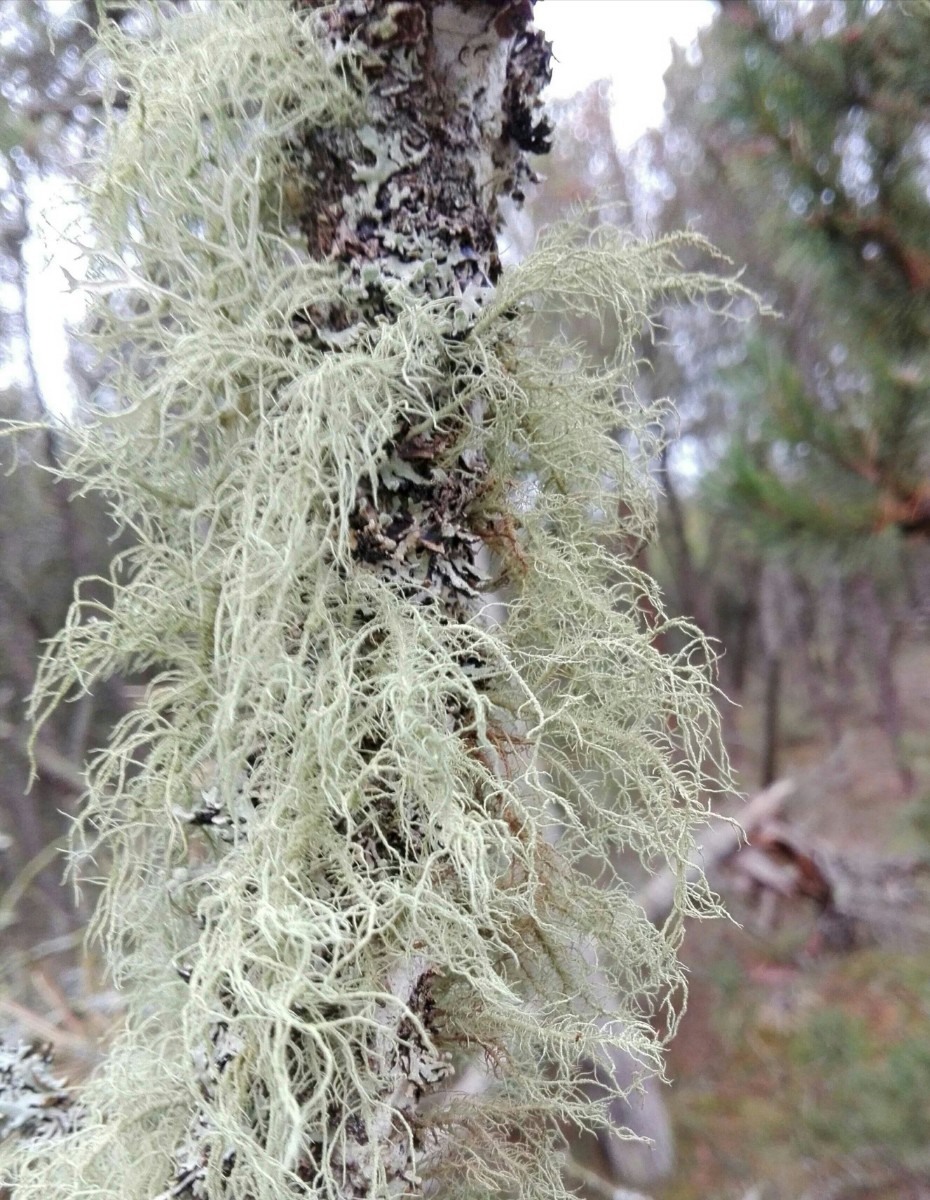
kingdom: Fungi
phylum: Ascomycota
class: Lecanoromycetes
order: Lecanorales
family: Parmeliaceae
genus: Usnea
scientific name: Usnea hirta
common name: liden skæglav
